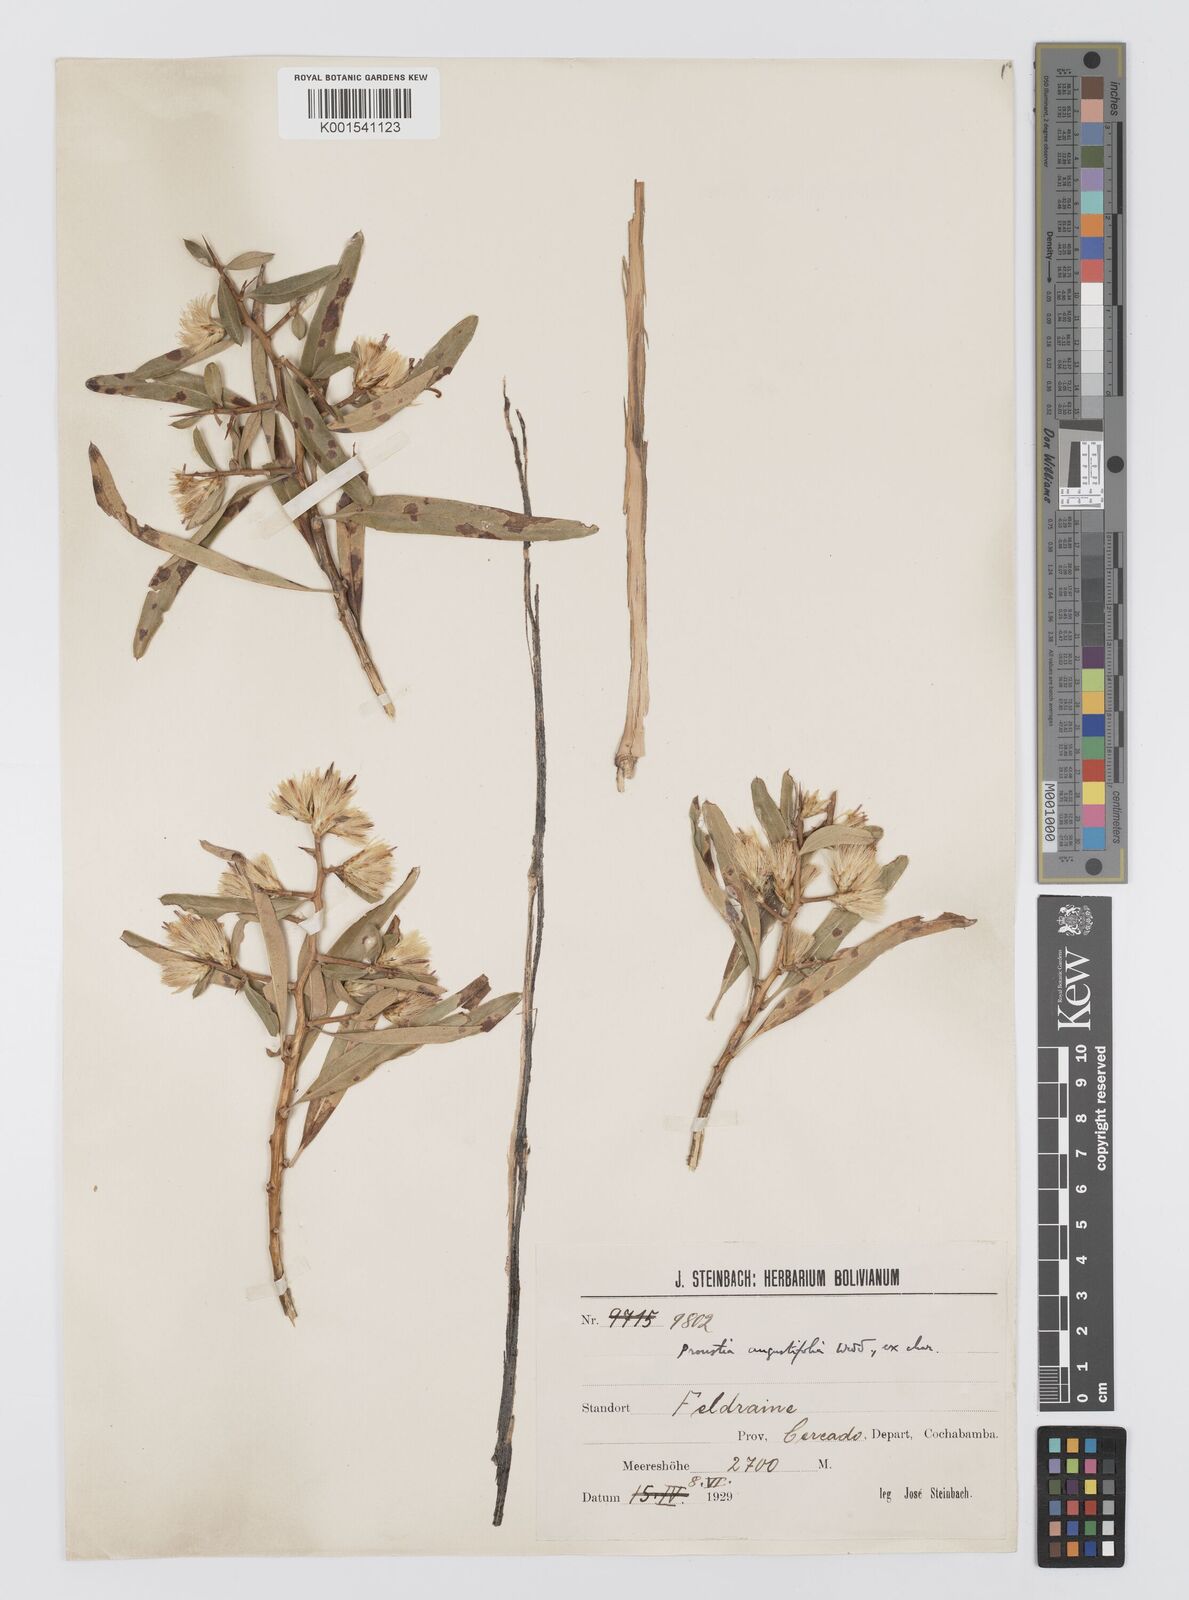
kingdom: Plantae
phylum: Tracheophyta
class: Magnoliopsida
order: Asterales
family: Asteraceae
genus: Proustia
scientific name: Proustia cuneifolia
